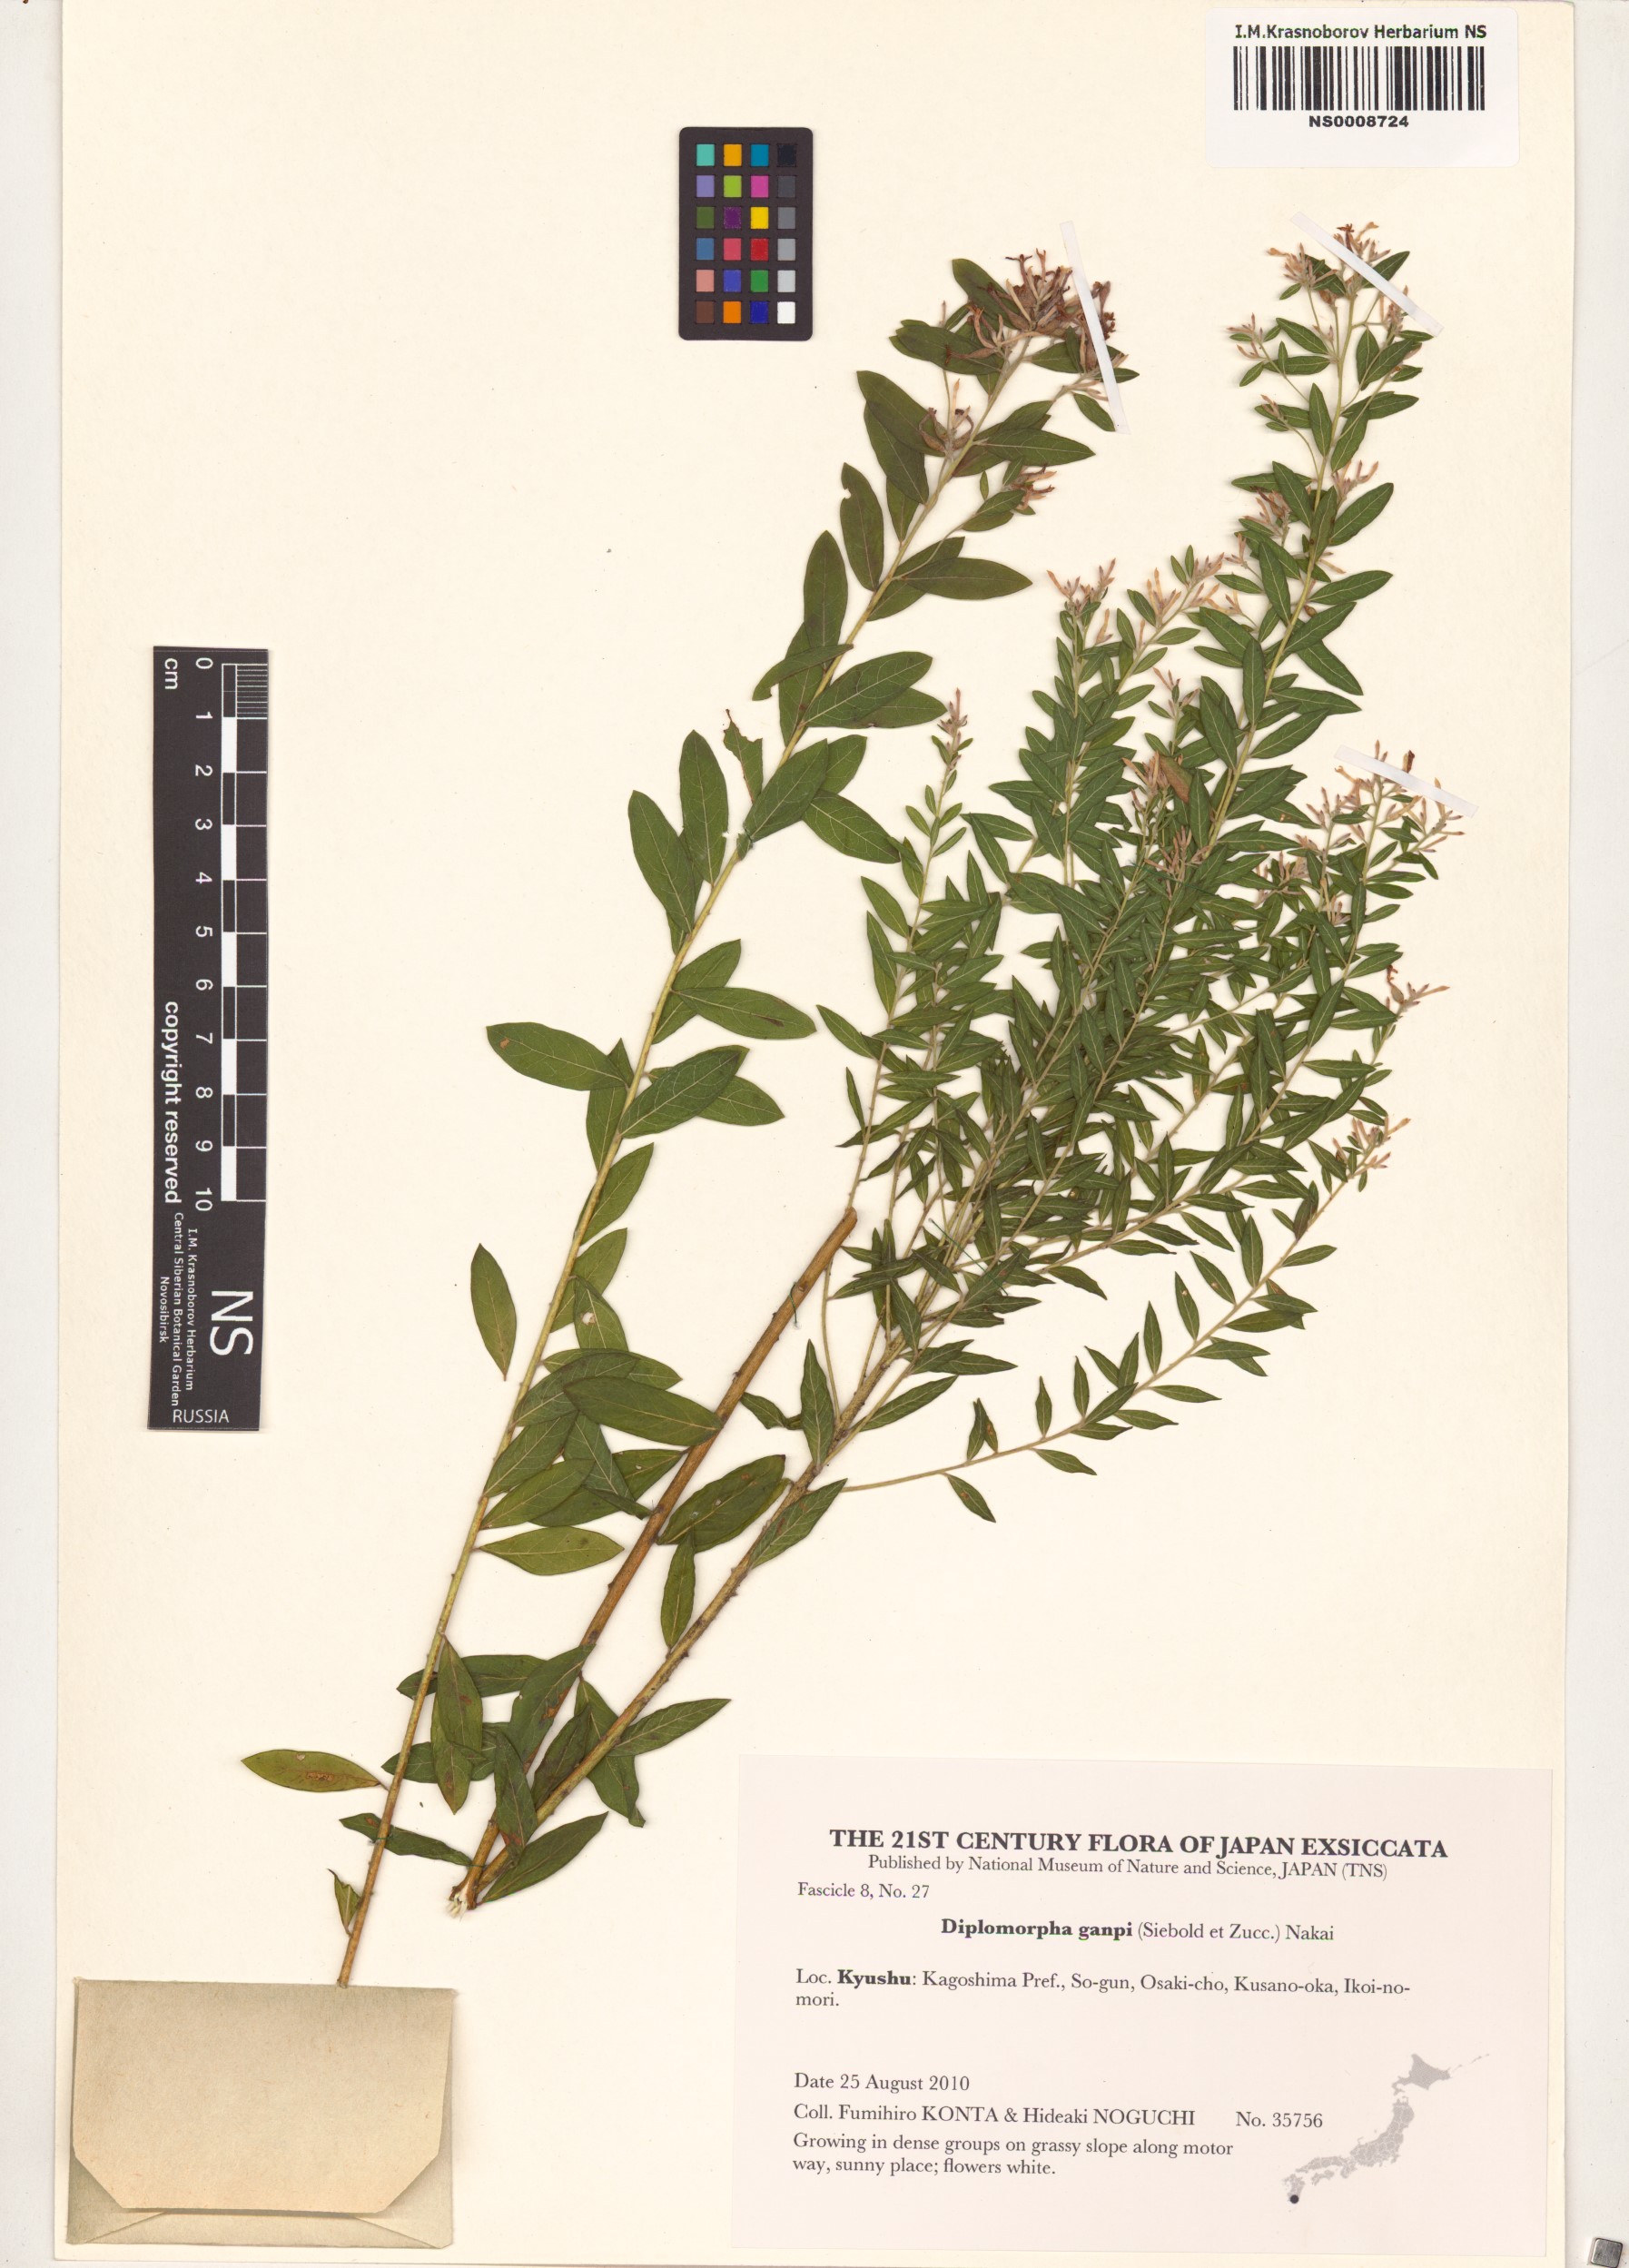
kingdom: Plantae
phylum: Tracheophyta
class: Magnoliopsida
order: Malvales
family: Thymelaeaceae
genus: Wikstroemia
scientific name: Wikstroemia ganpi
